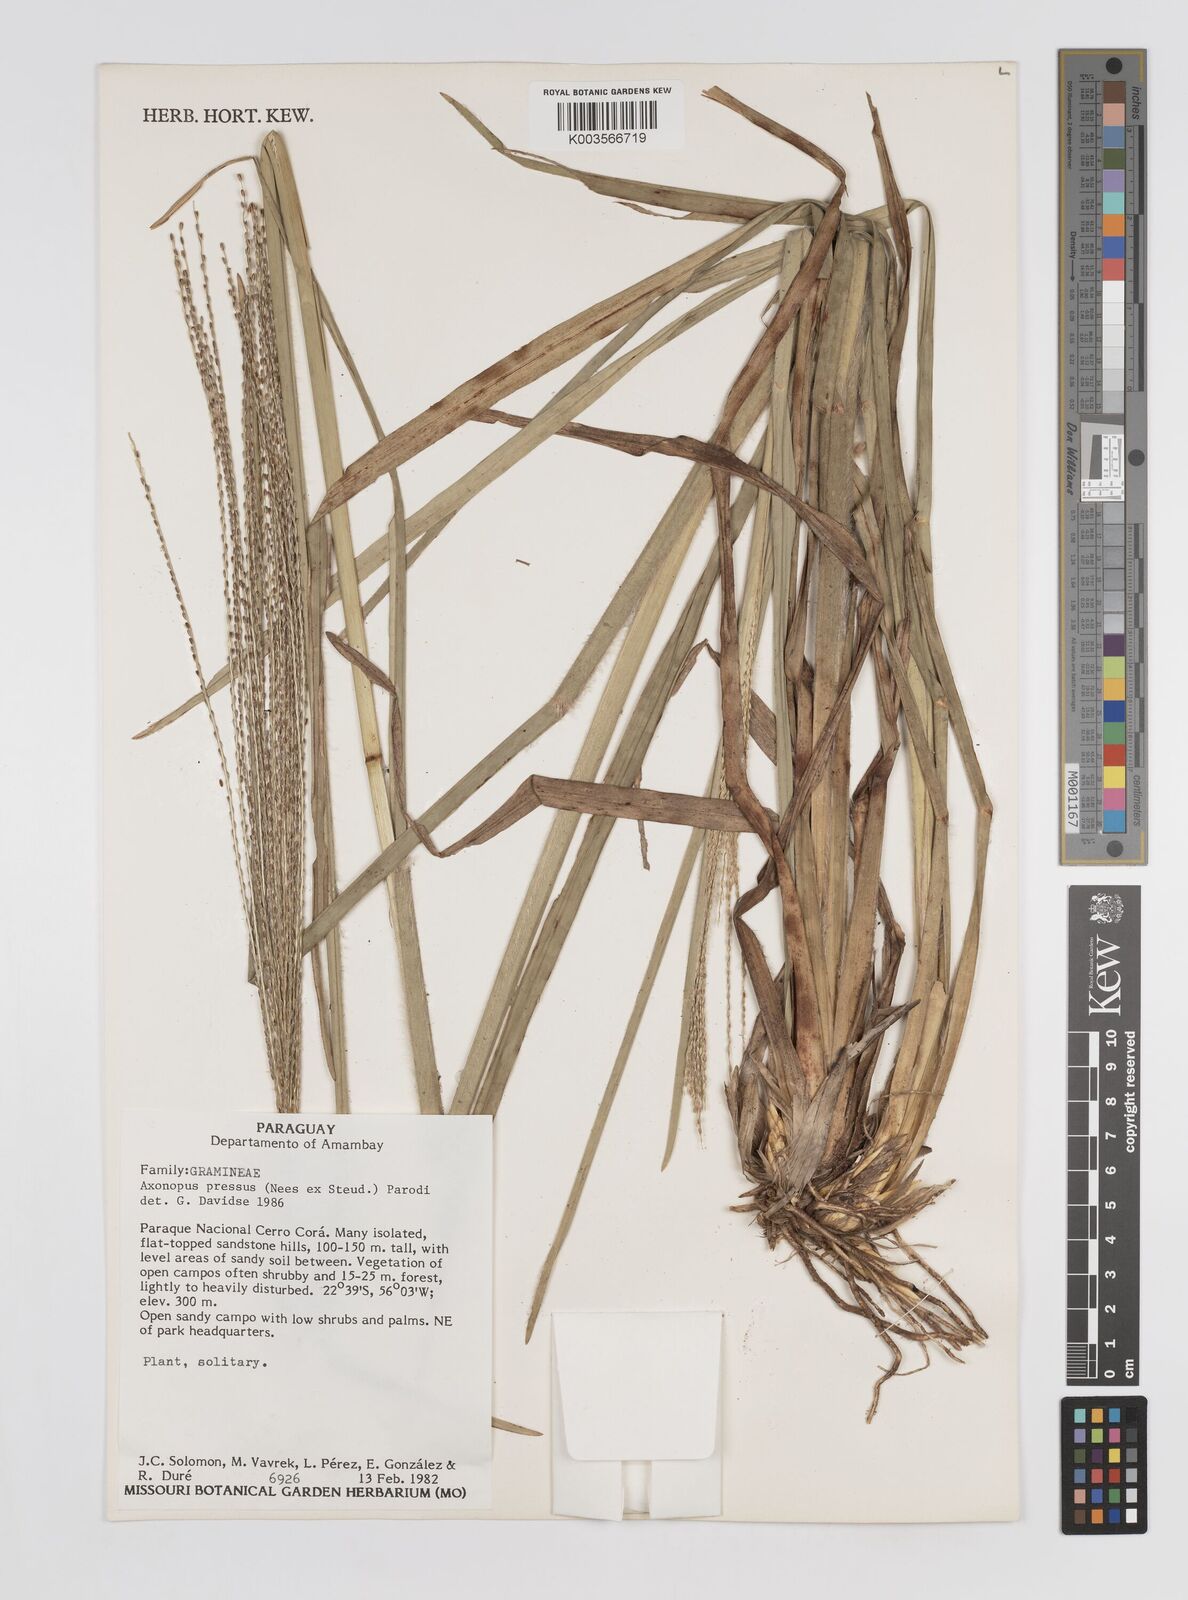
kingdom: Plantae
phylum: Tracheophyta
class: Liliopsida
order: Poales
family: Poaceae
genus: Axonopus
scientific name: Axonopus pressus
